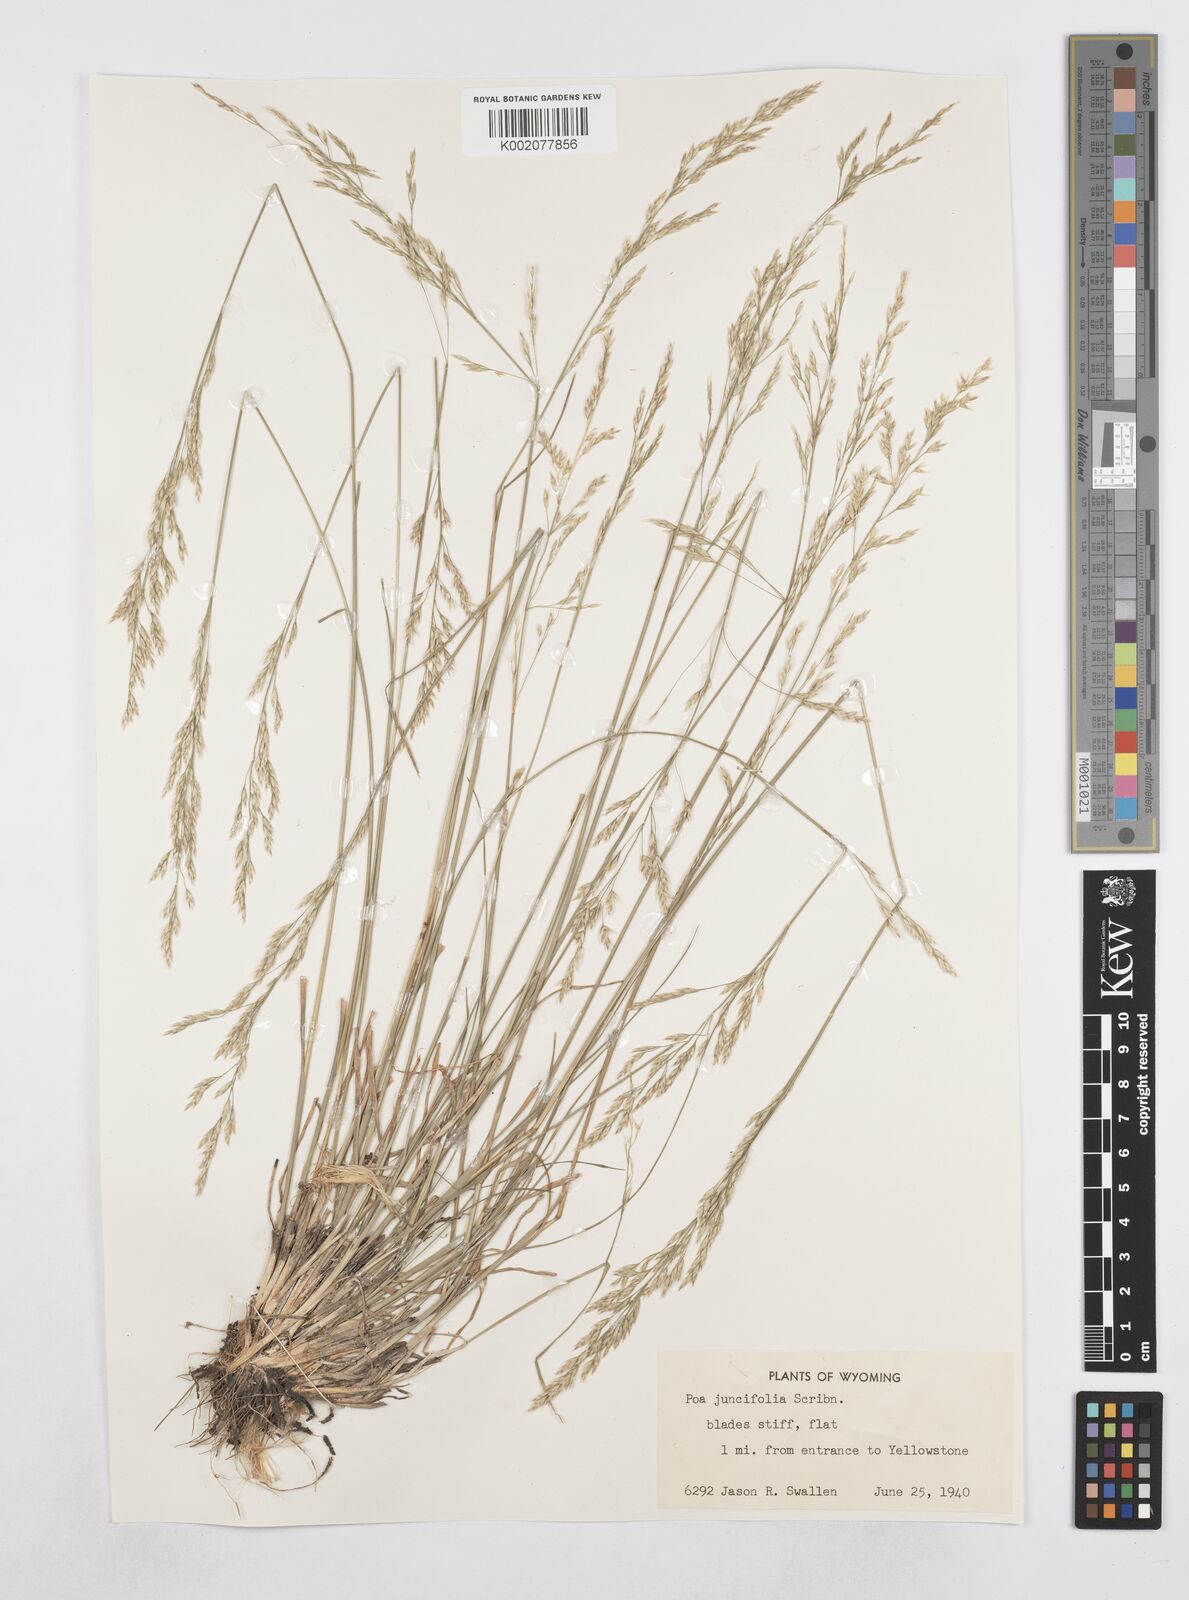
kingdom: Plantae
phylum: Tracheophyta
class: Liliopsida
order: Poales
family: Poaceae
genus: Poa
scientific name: Poa secunda
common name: Sandberg bluegrass
